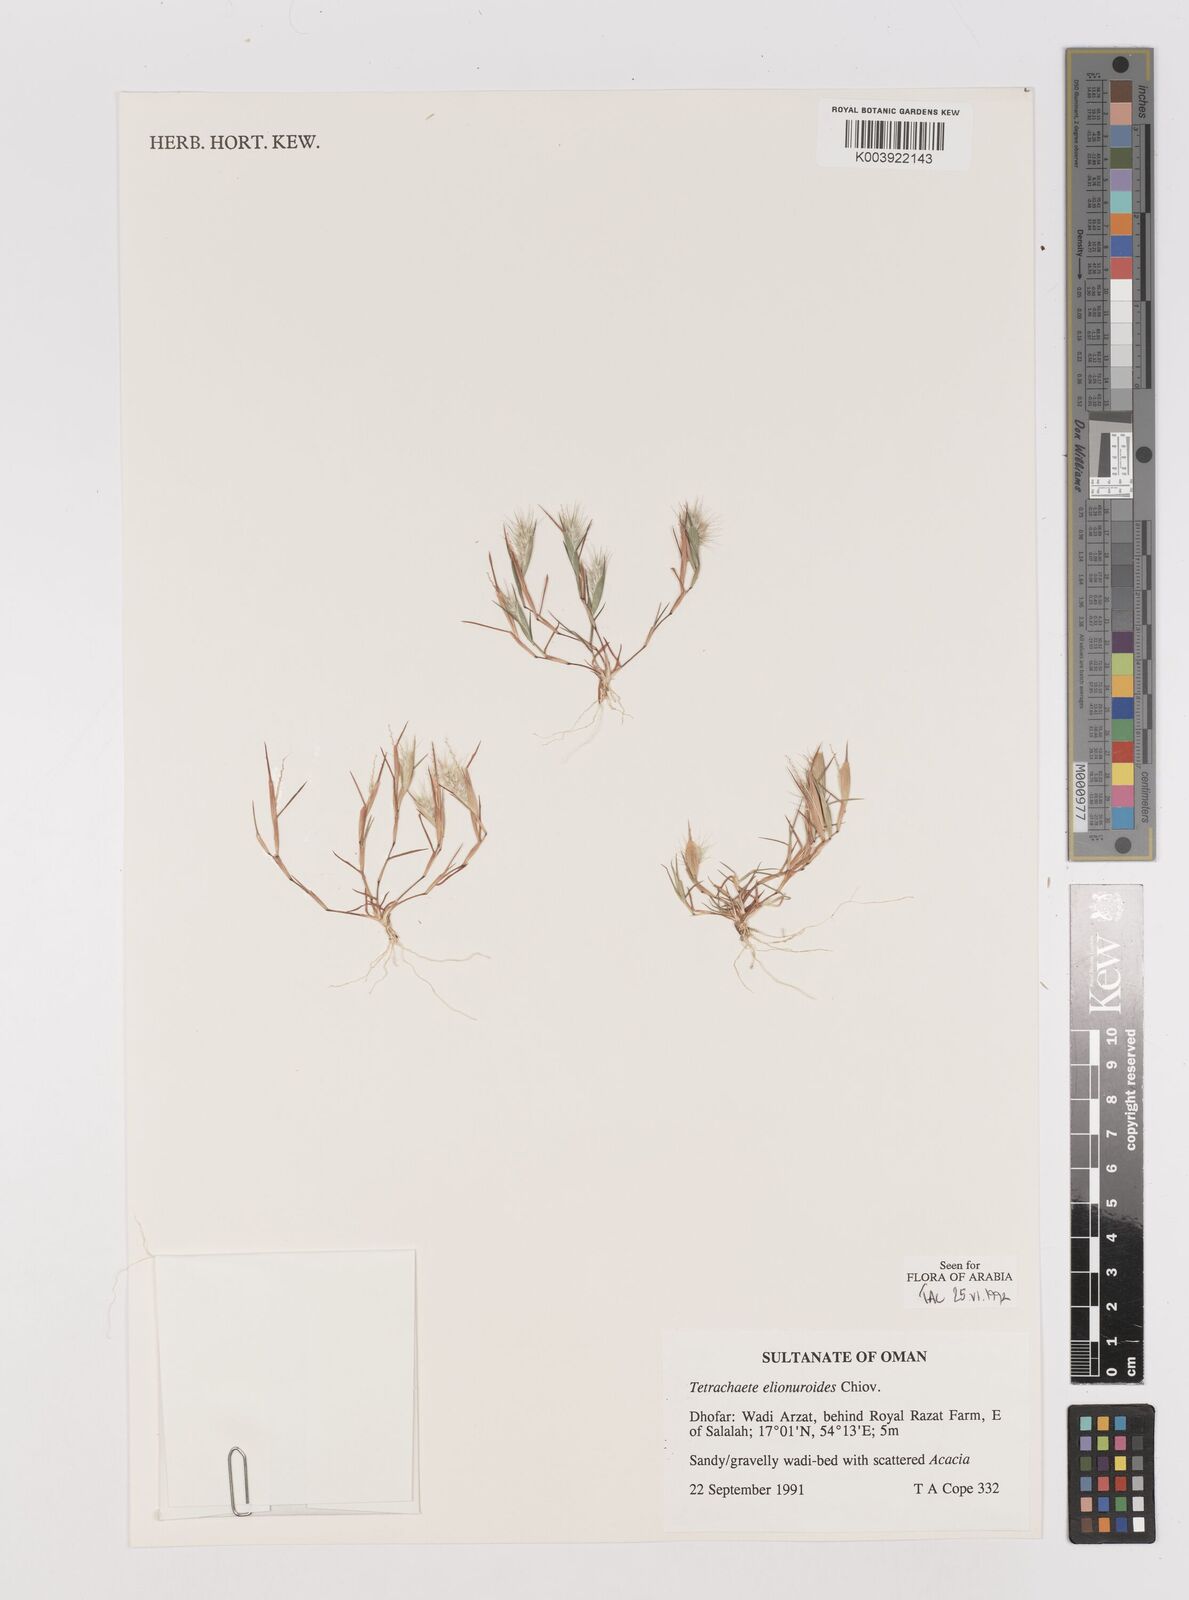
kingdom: Plantae
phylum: Tracheophyta
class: Liliopsida
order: Poales
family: Poaceae
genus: Tetrachaete
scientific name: Tetrachaete elionuroides
